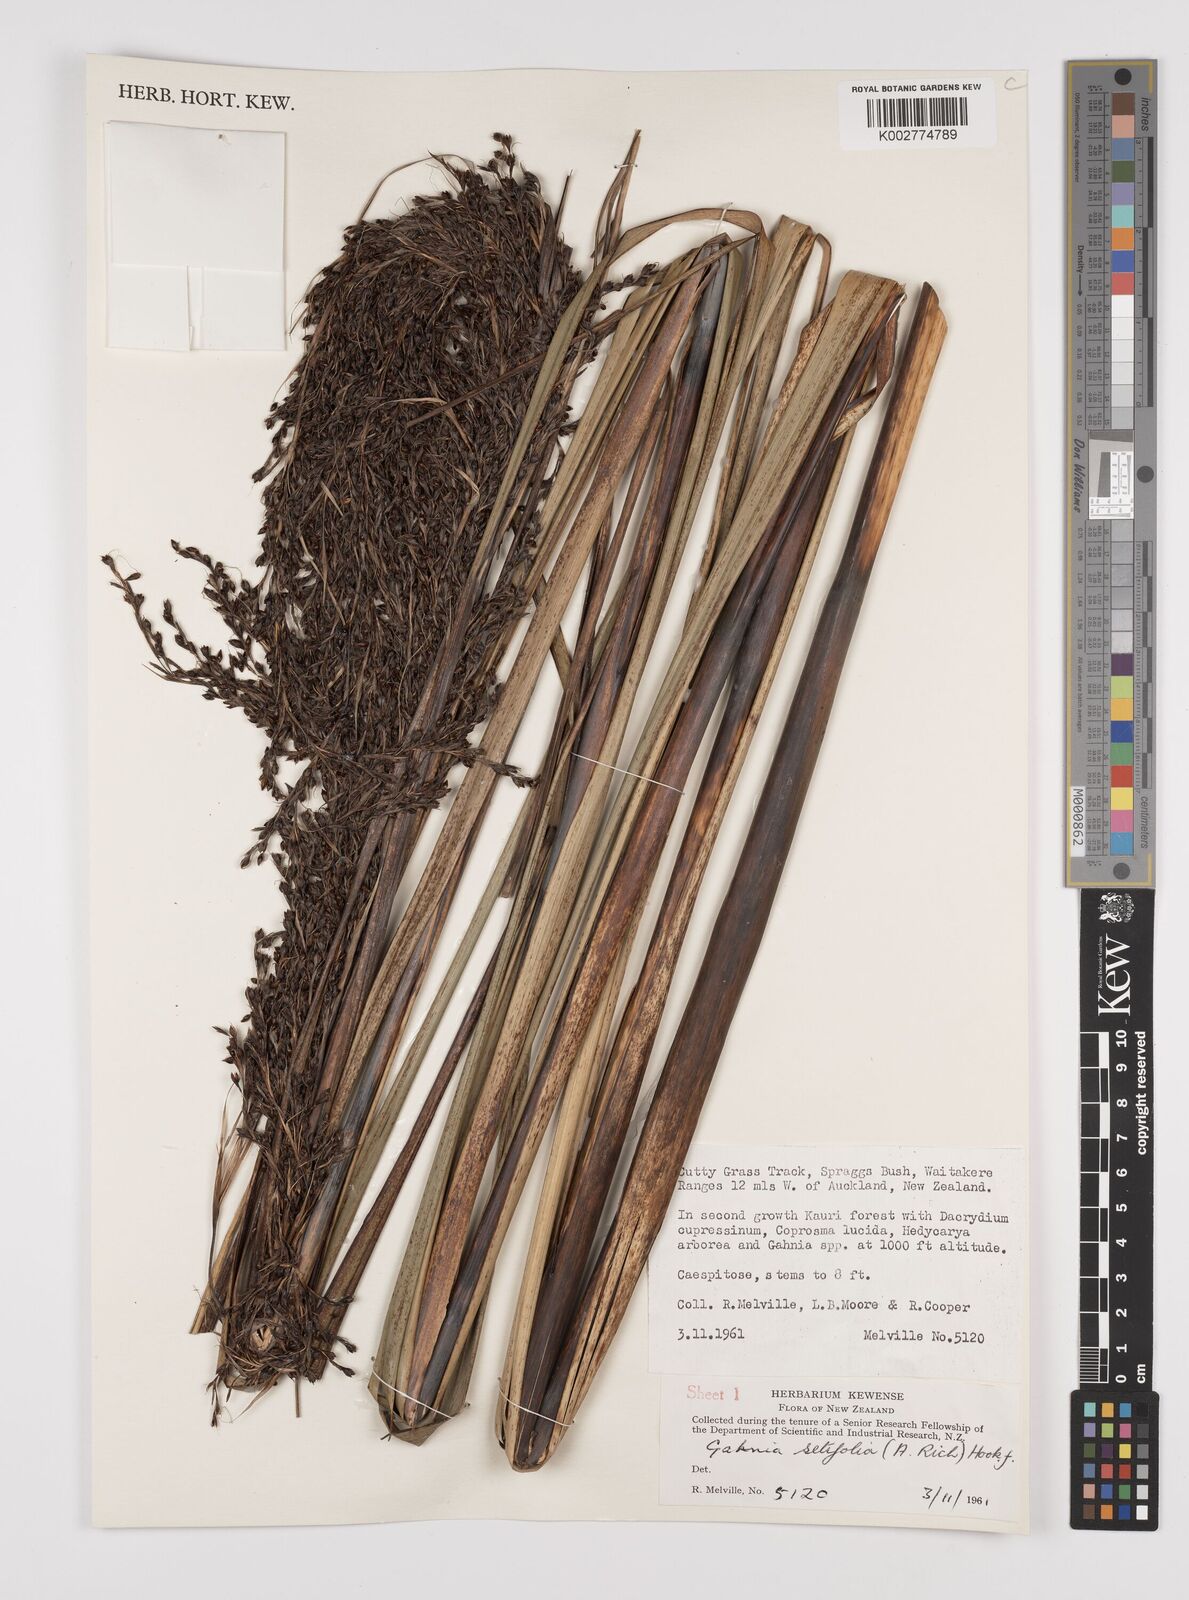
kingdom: Plantae
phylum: Tracheophyta
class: Liliopsida
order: Poales
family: Cyperaceae
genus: Gahnia
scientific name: Gahnia setifolia
